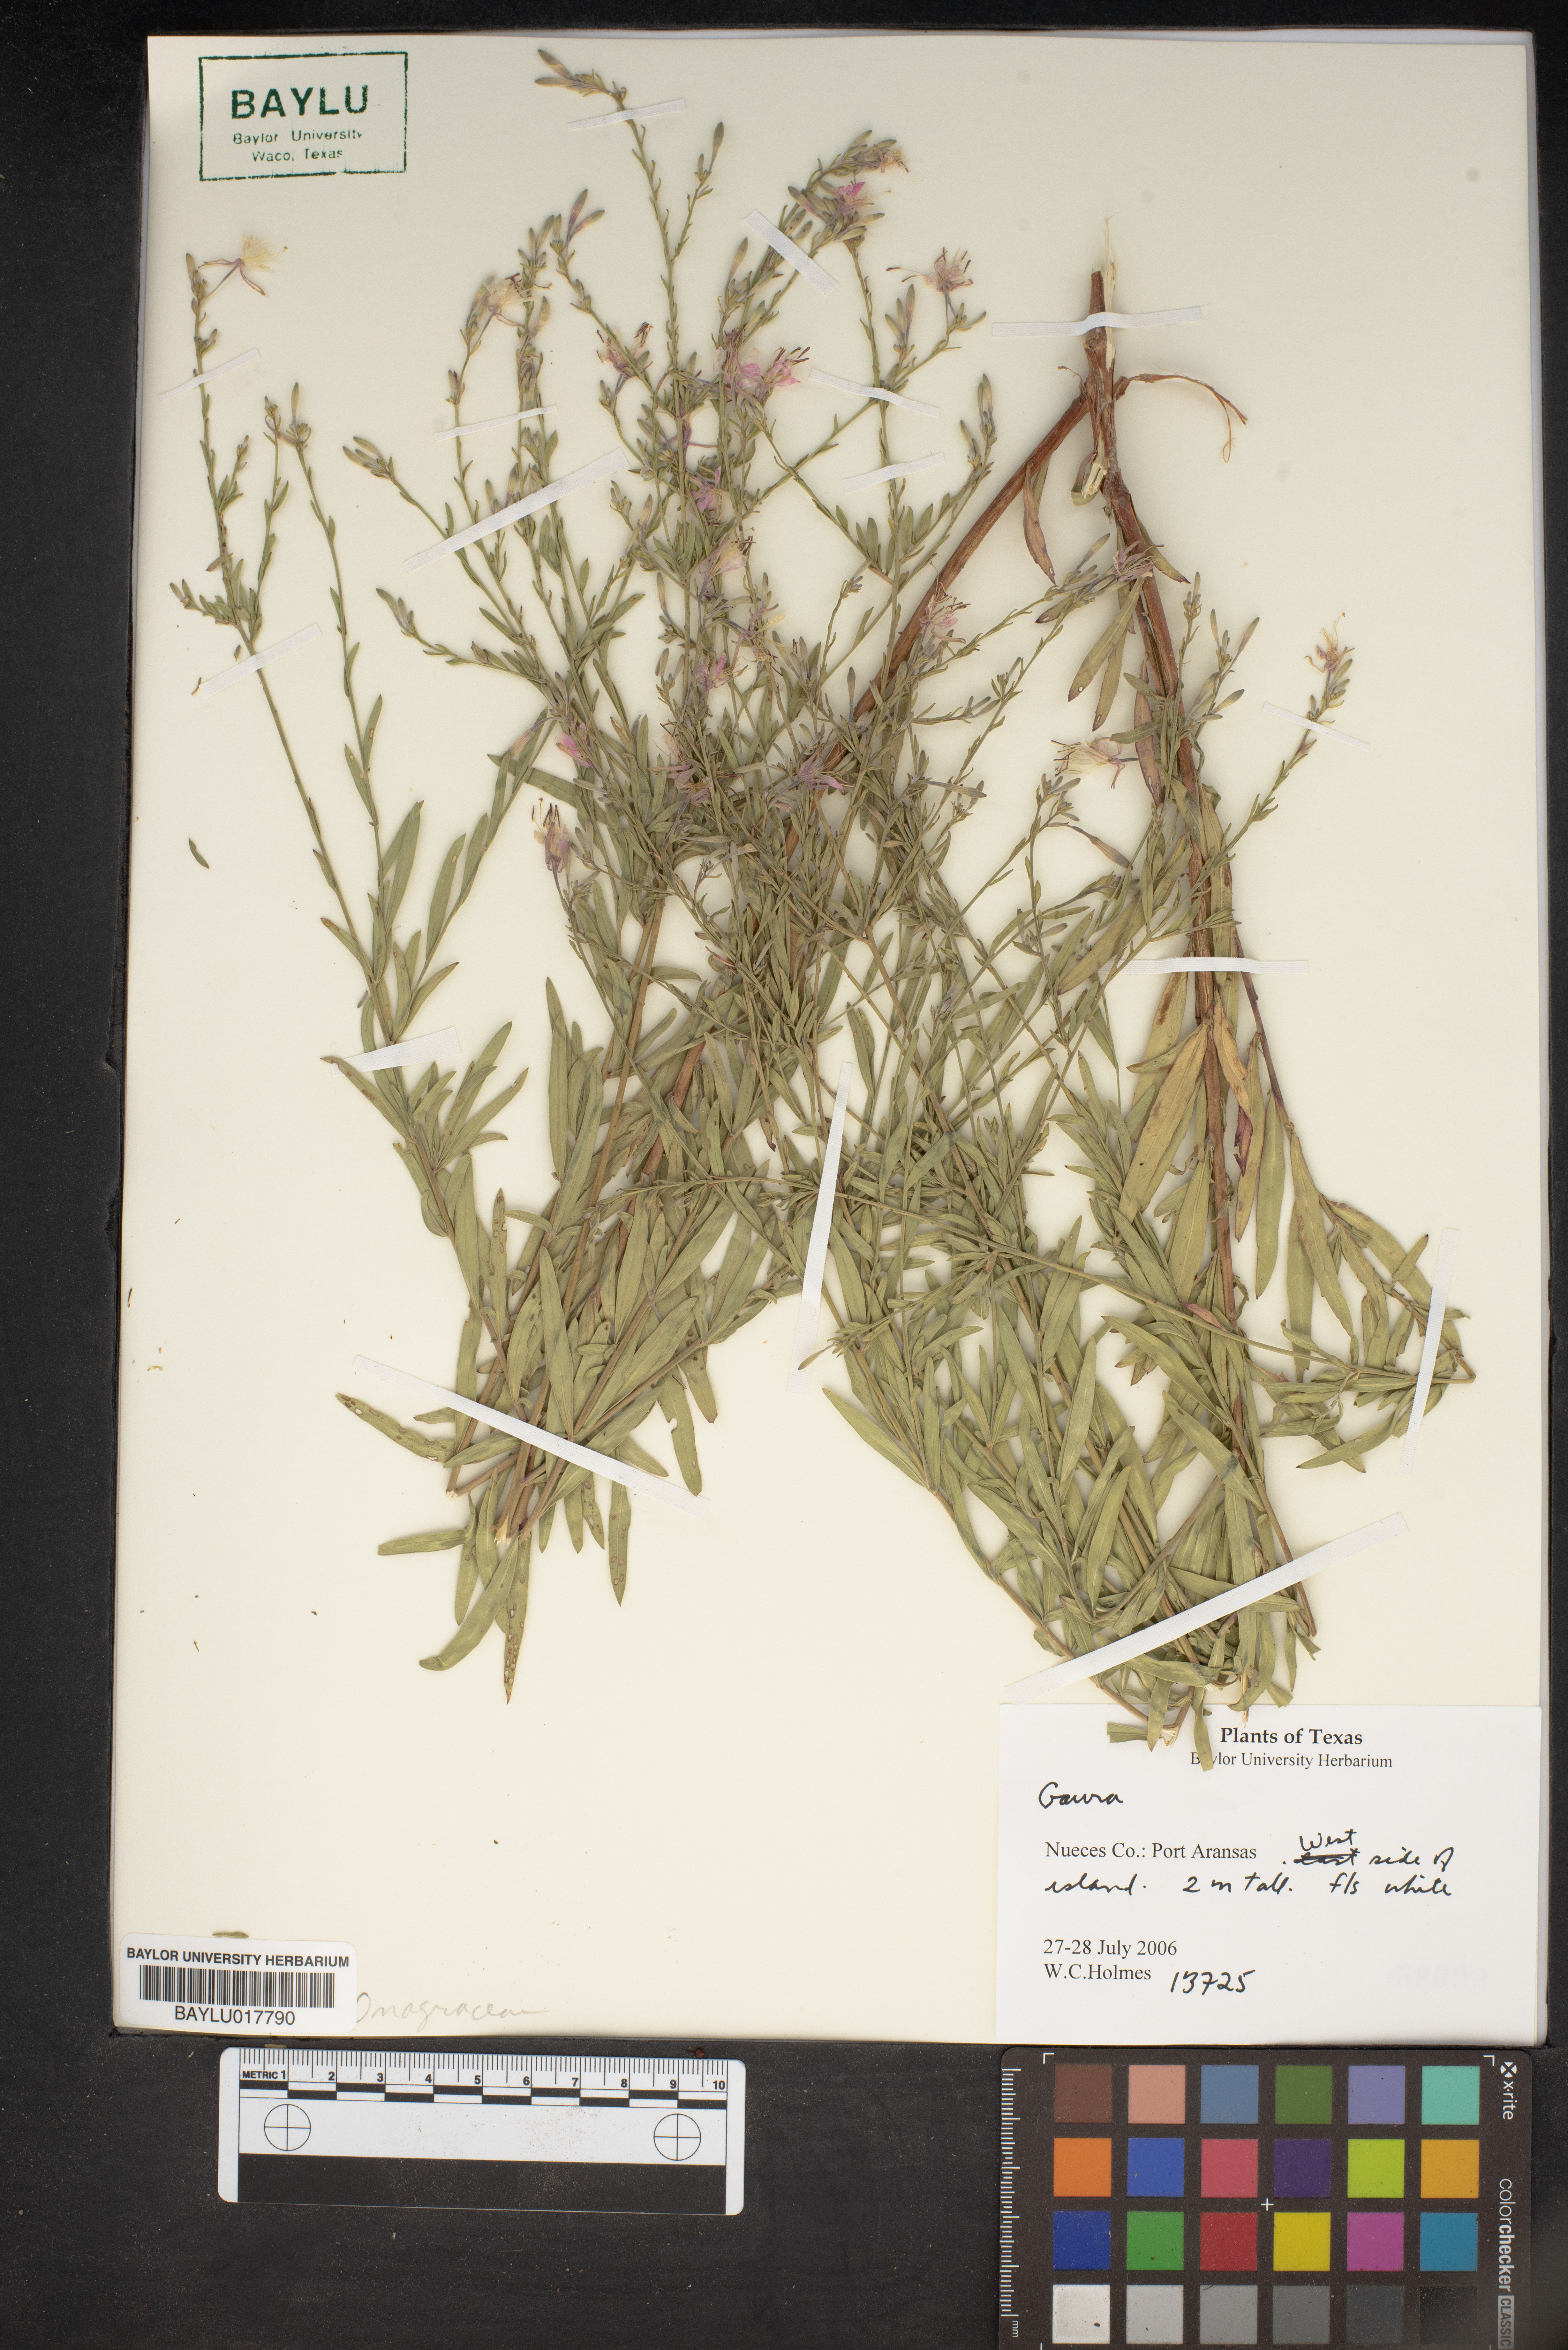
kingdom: Plantae
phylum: Tracheophyta
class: Magnoliopsida
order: Myrtales
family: Onagraceae
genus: Oenothera
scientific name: Oenothera
